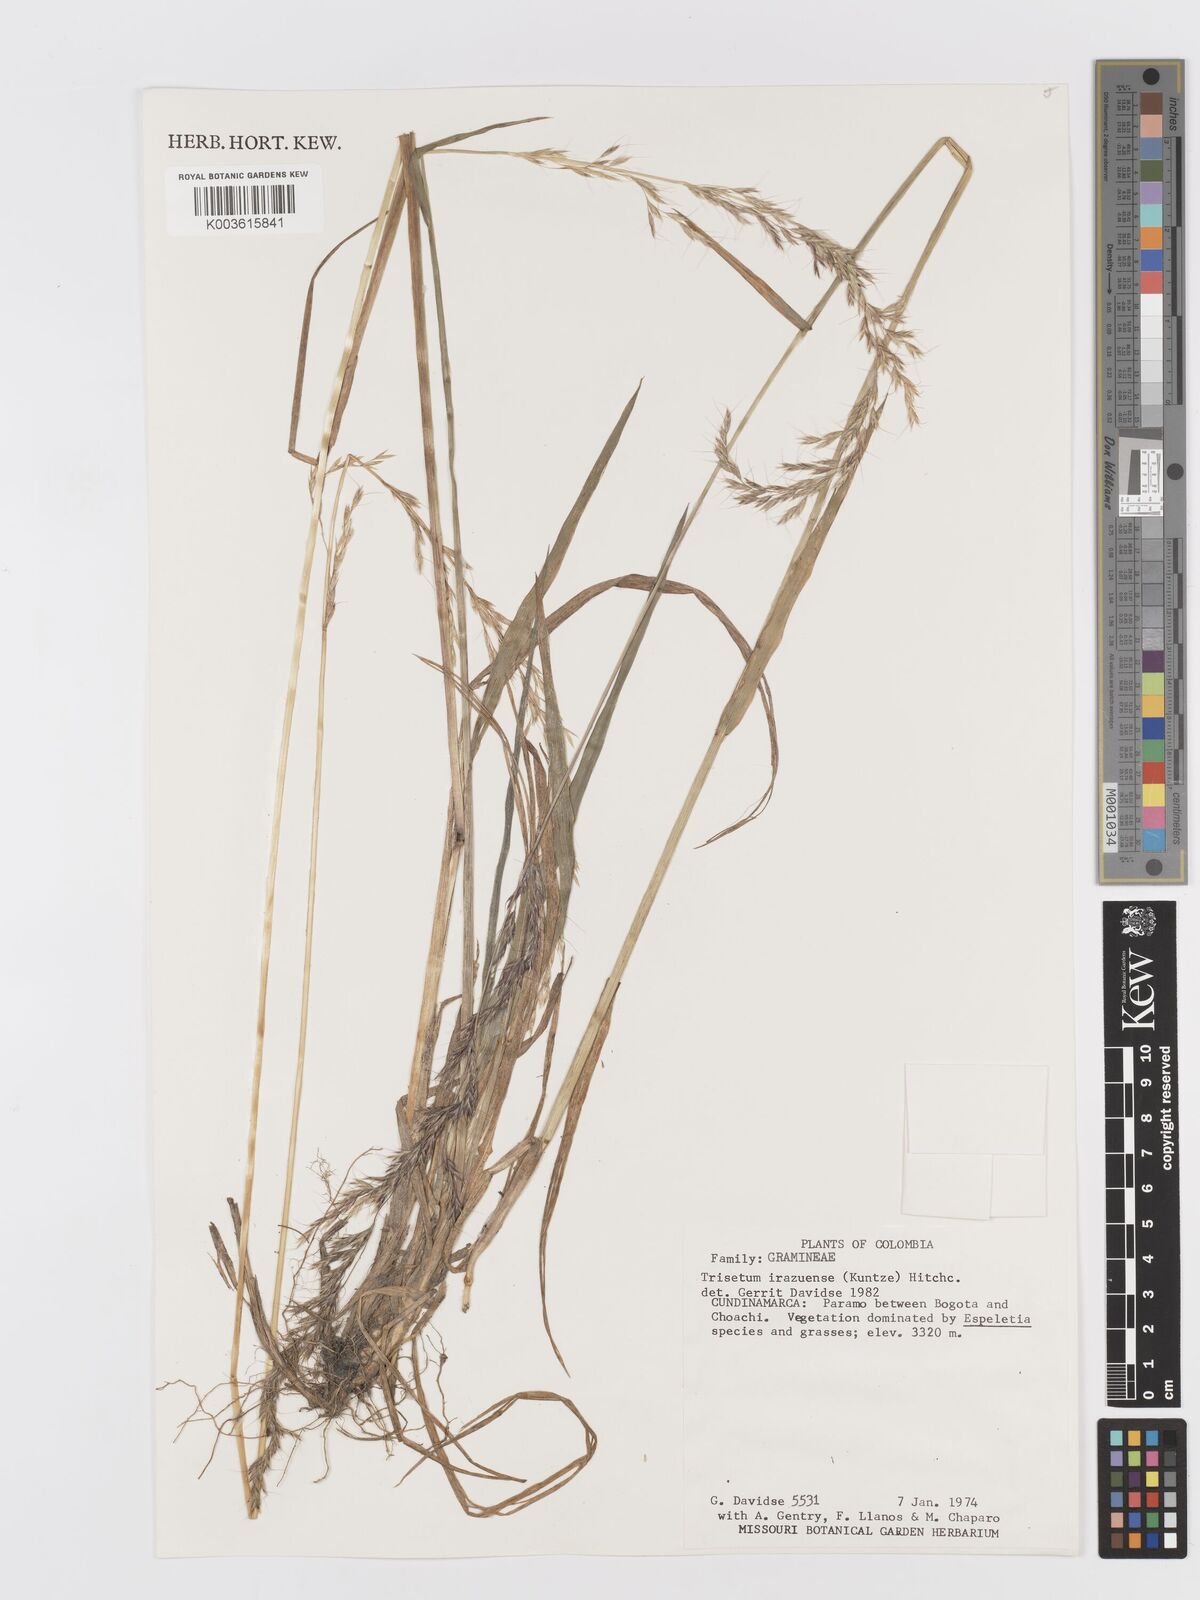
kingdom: Plantae
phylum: Tracheophyta
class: Liliopsida
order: Poales
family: Poaceae
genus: Peyritschia
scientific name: Peyritschia irazuensis
